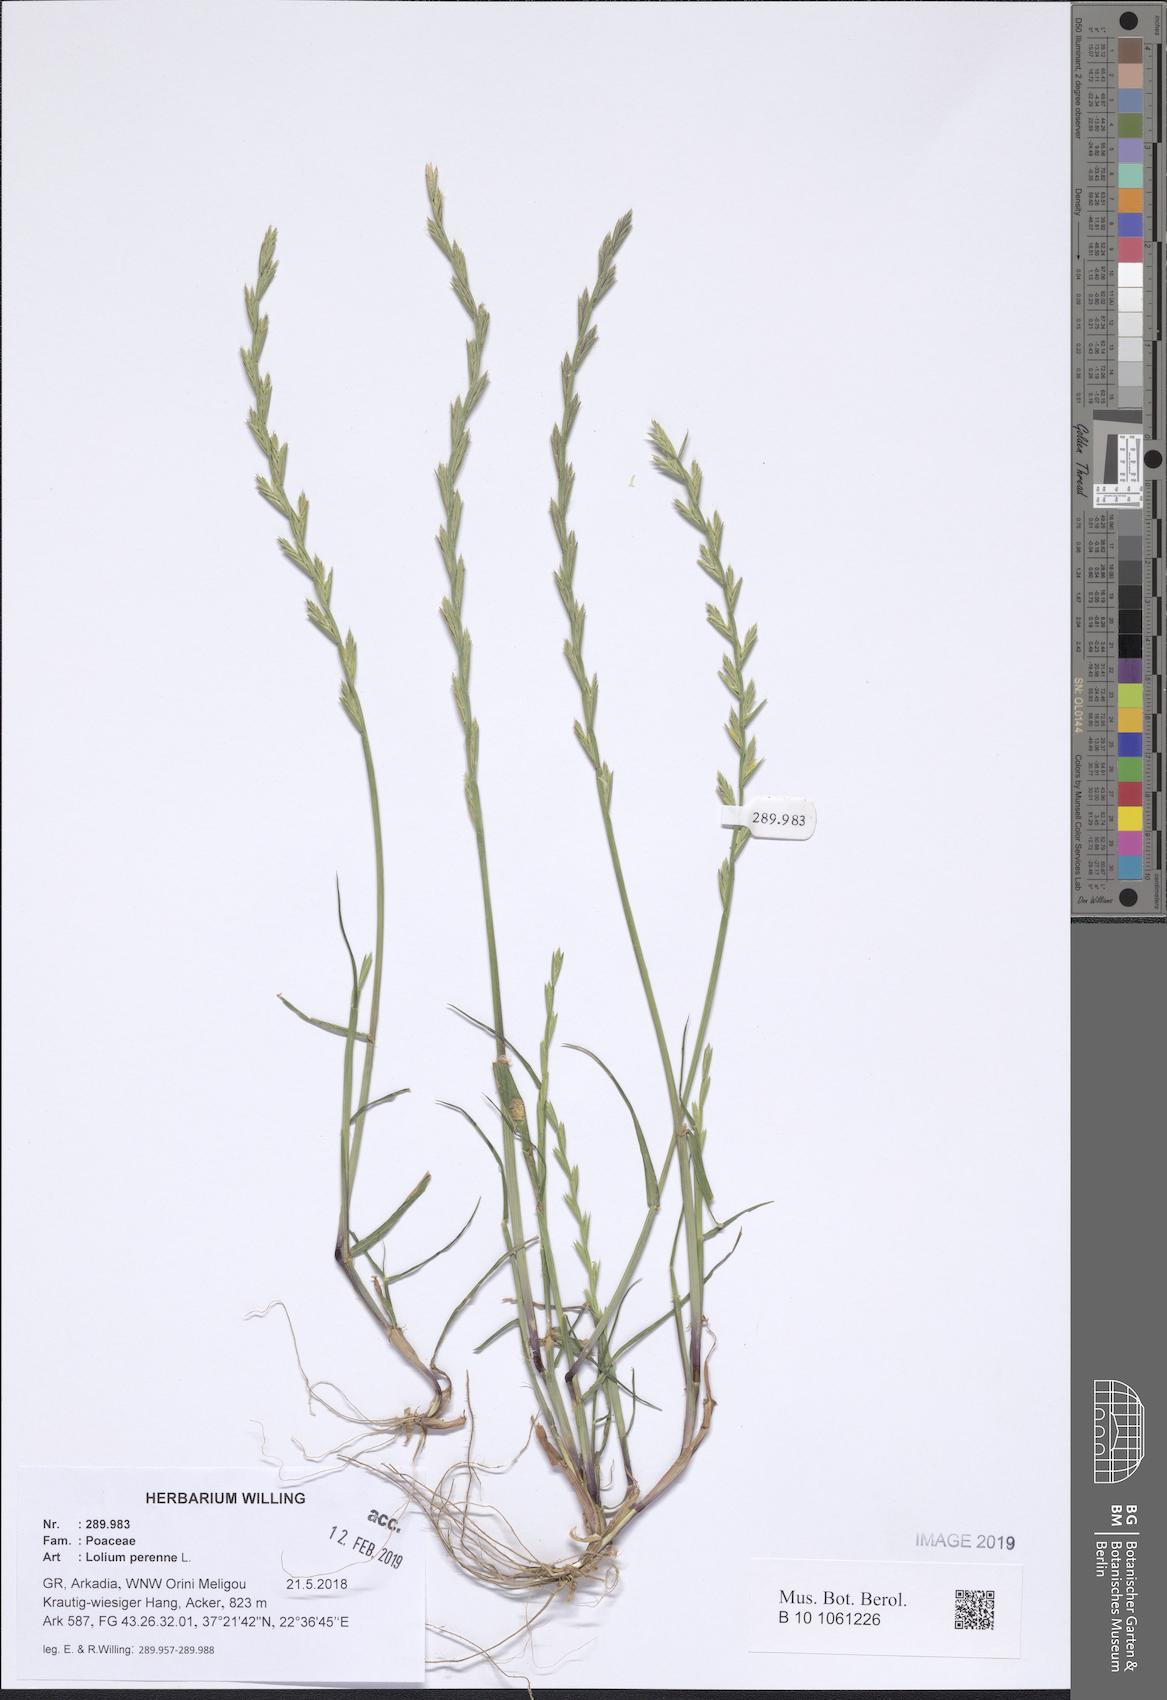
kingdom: Plantae
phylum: Tracheophyta
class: Liliopsida
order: Poales
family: Poaceae
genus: Lolium
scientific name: Lolium perenne
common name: Perennial ryegrass
